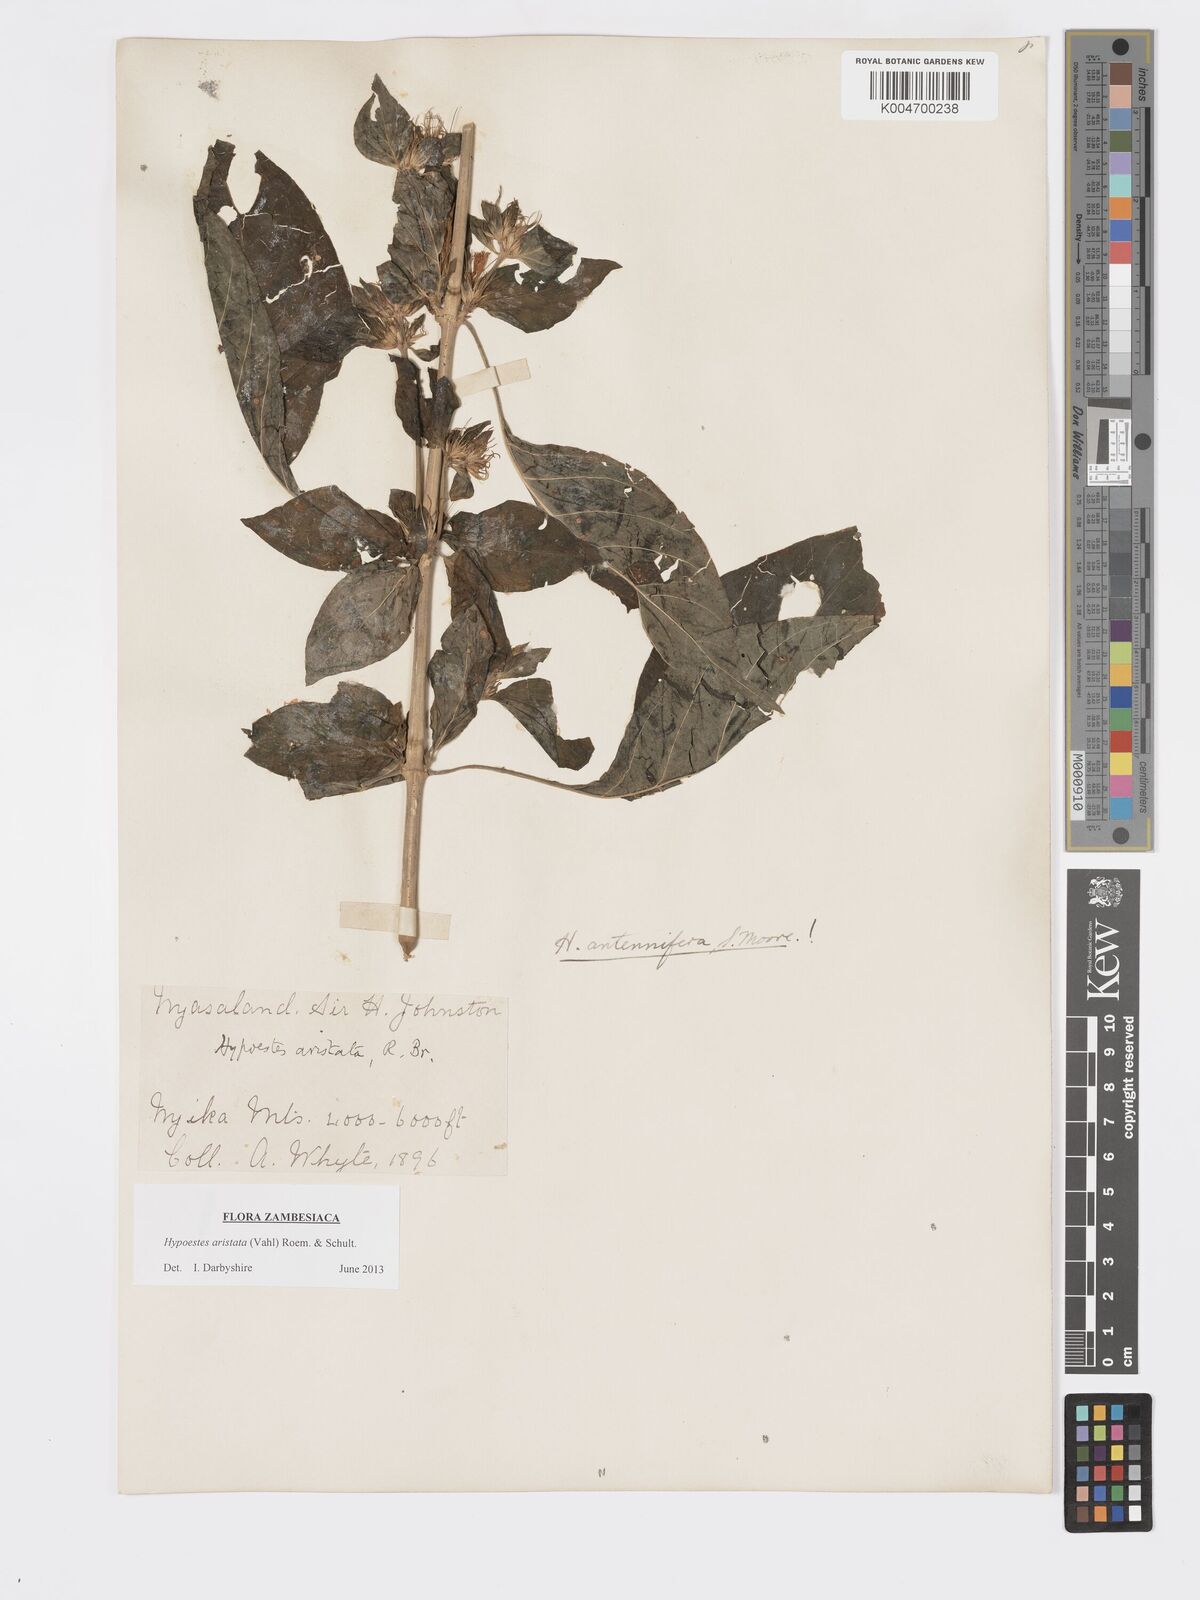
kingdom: Plantae
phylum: Tracheophyta
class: Magnoliopsida
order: Lamiales
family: Acanthaceae
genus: Hypoestes
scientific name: Hypoestes aristata
